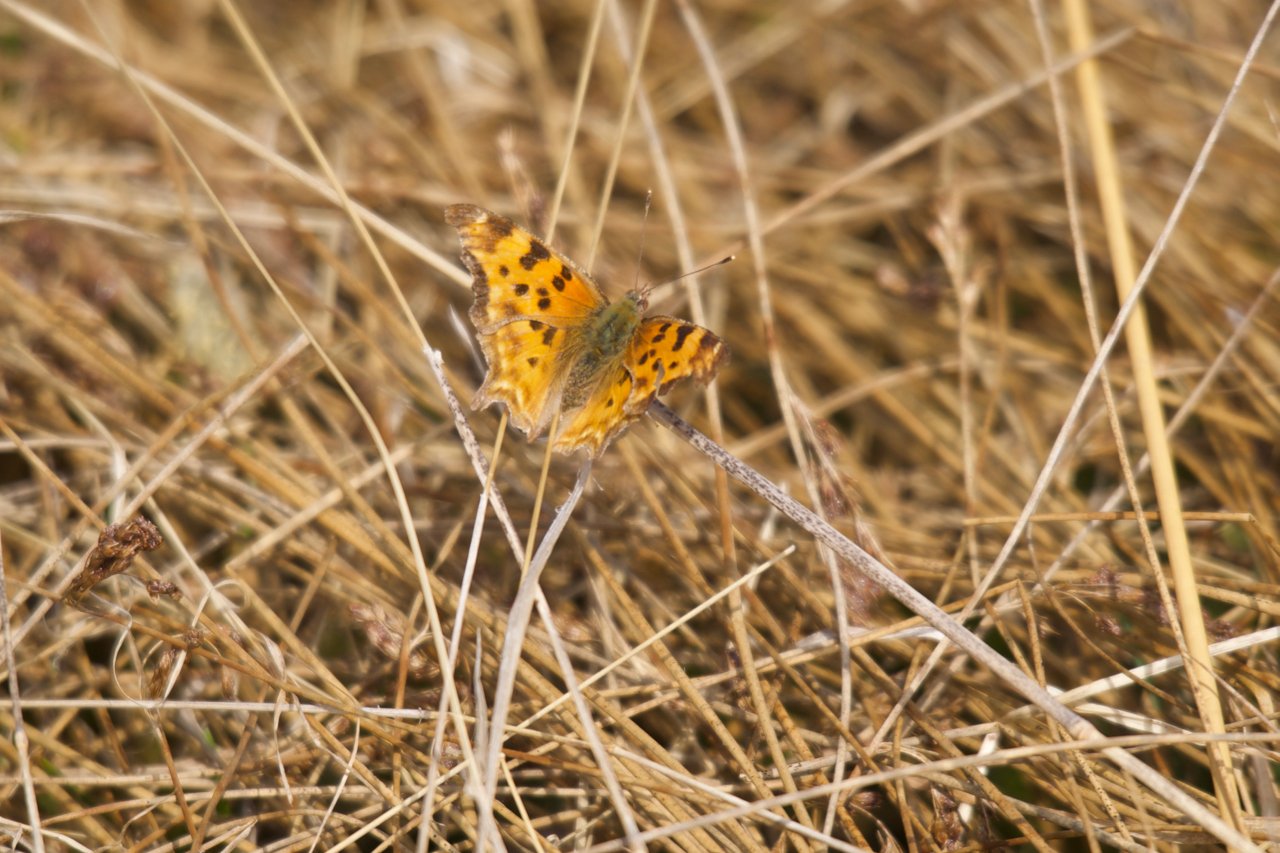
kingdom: Animalia
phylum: Arthropoda
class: Insecta
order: Lepidoptera
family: Nymphalidae
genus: Polygonia
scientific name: Polygonia satyrus
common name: Satyr Comma
